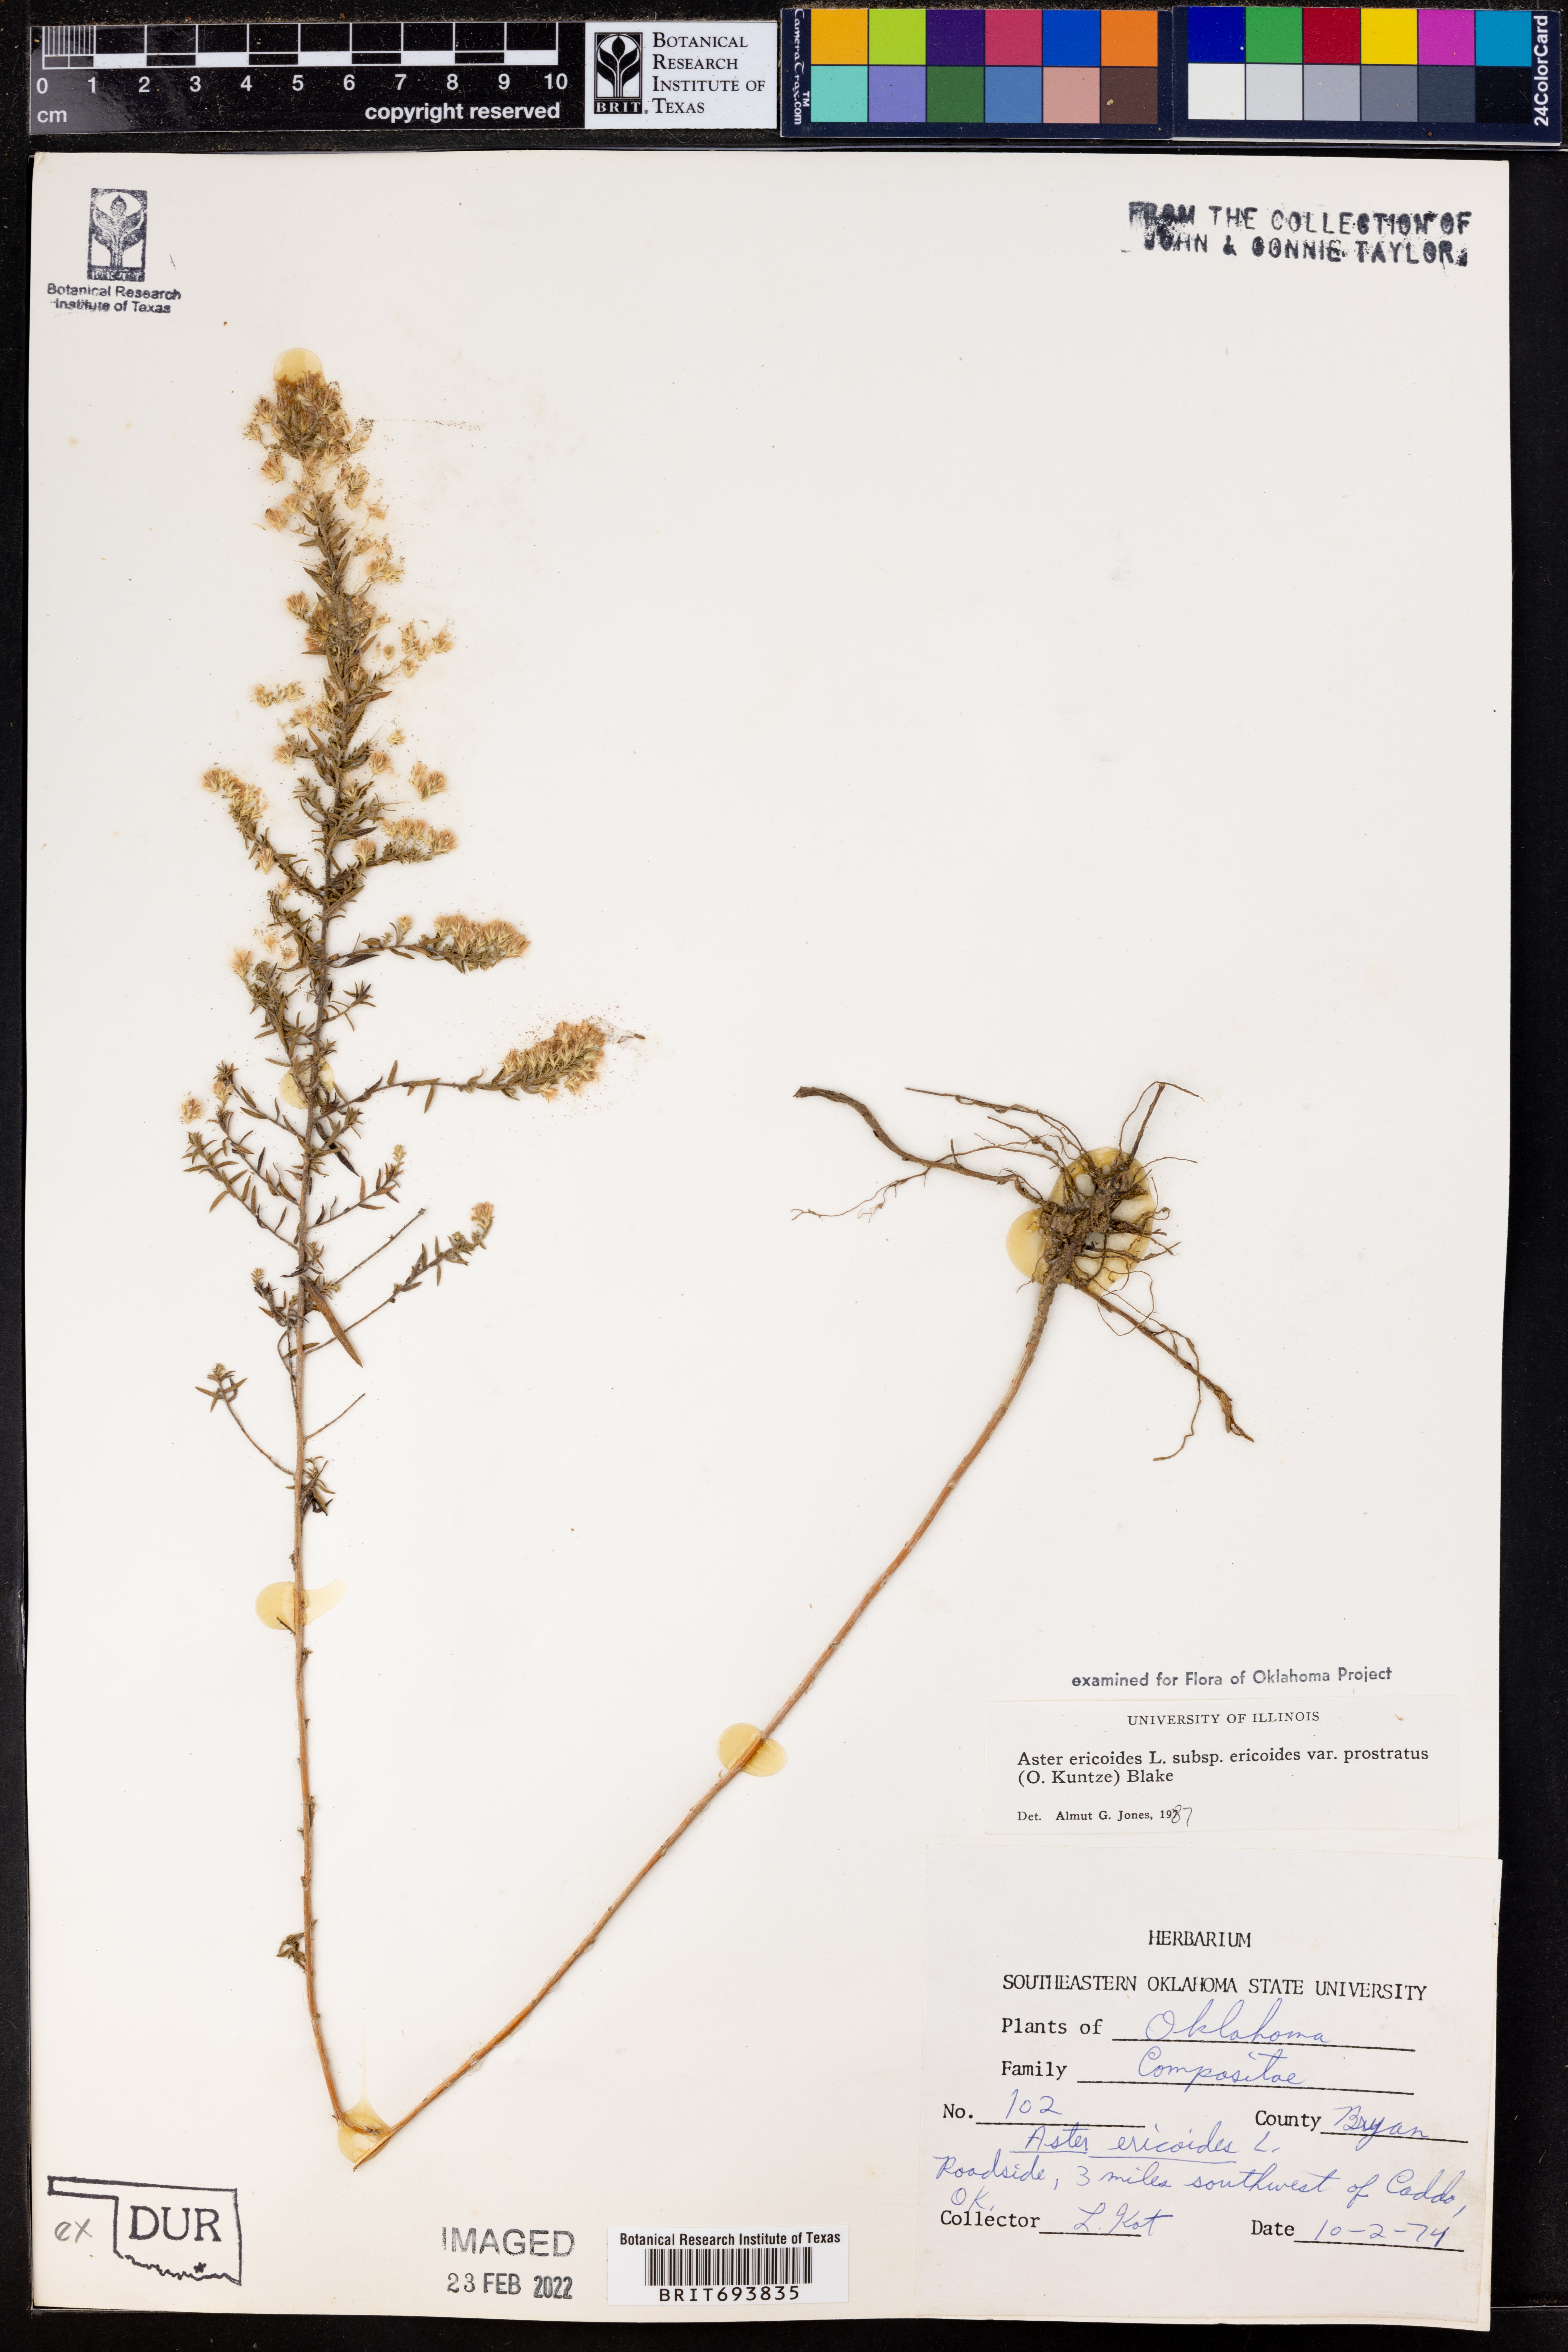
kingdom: Plantae
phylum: Tracheophyta
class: Magnoliopsida
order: Asterales
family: Asteraceae
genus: Symphyotrichum
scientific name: Symphyotrichum ericoides
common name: Heath aster
